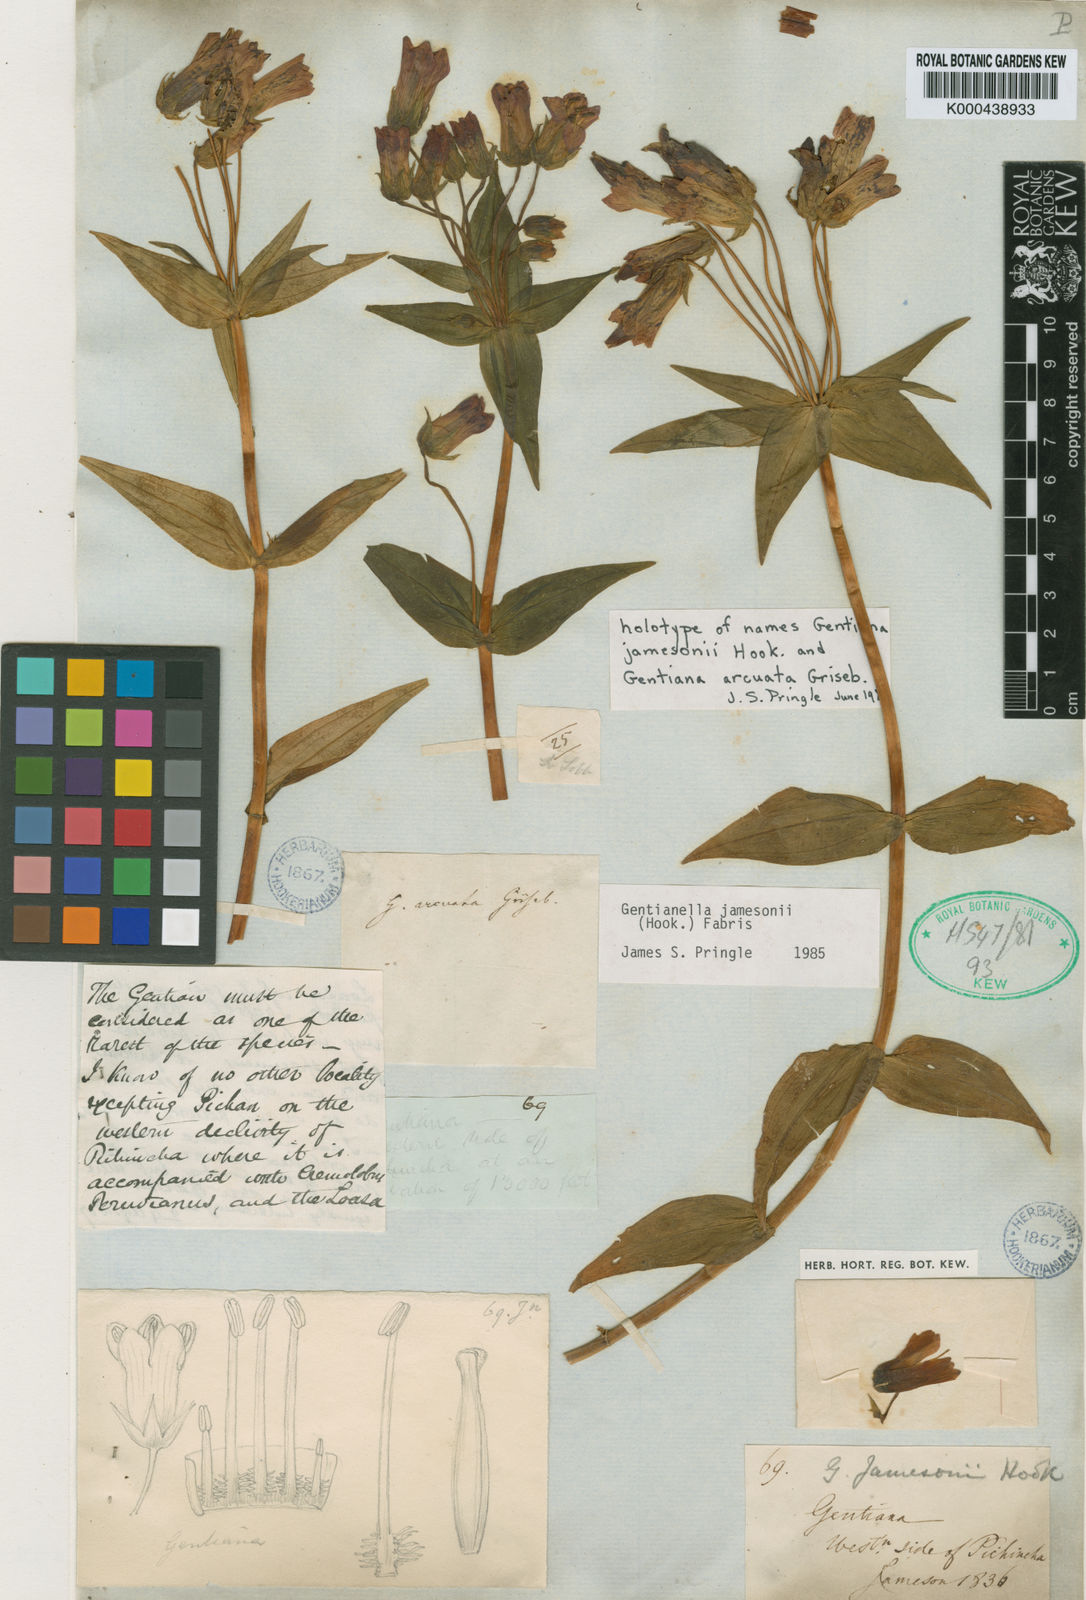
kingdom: Plantae
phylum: Tracheophyta
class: Magnoliopsida
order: Gentianales
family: Gentianaceae
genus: Gentianella
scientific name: Gentianella jamesonii
